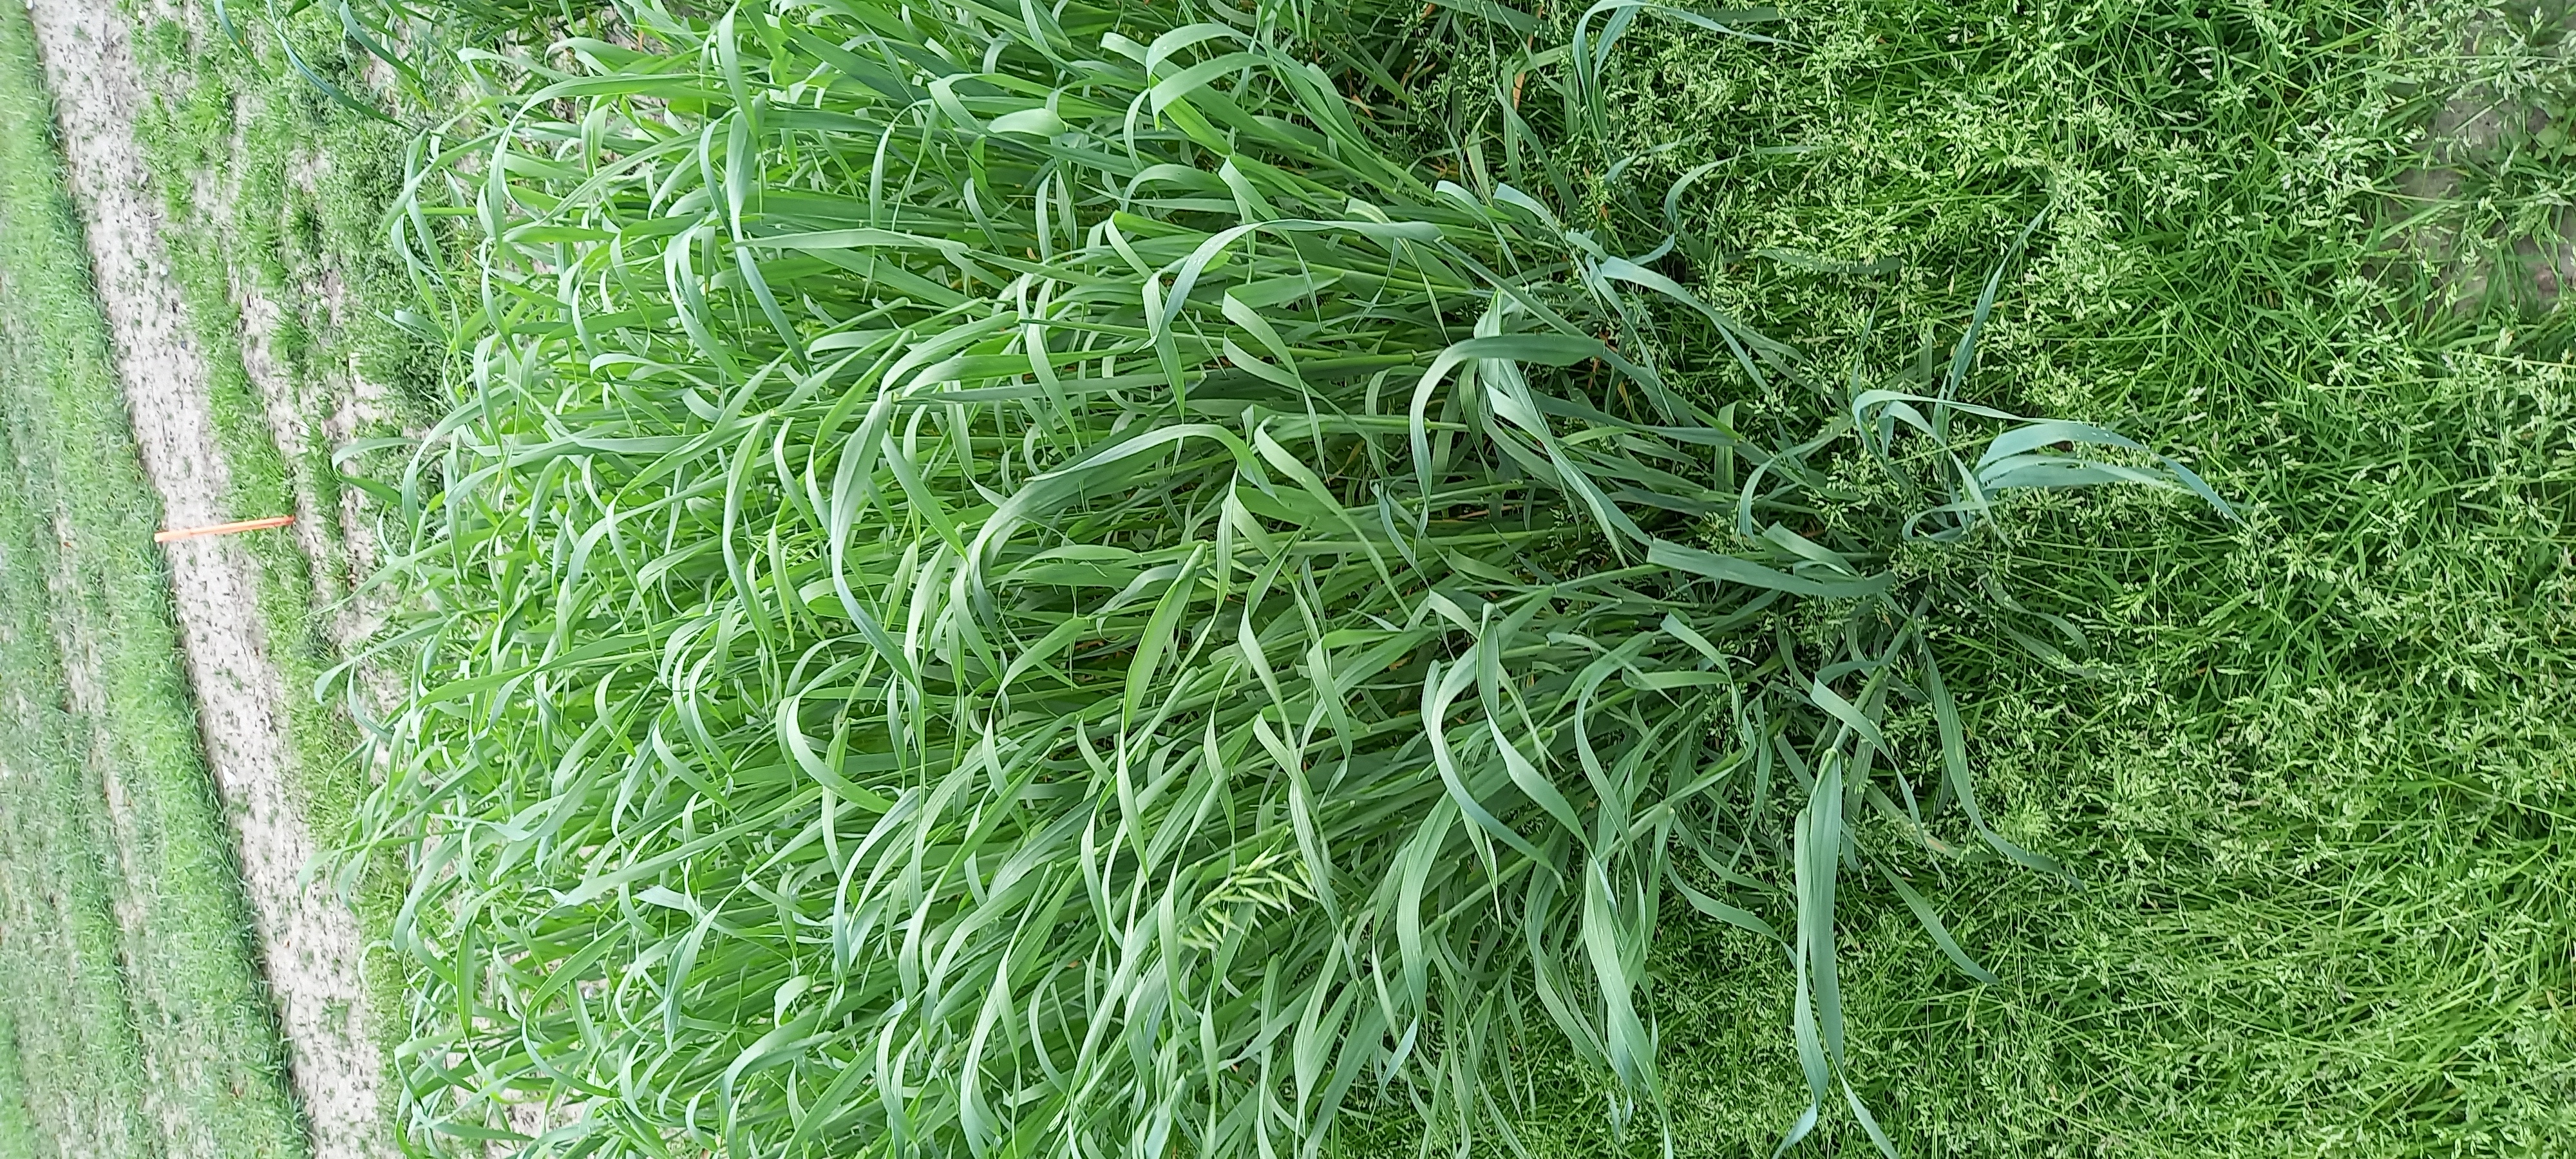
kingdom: Plantae
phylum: Tracheophyta
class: Liliopsida
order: Poales
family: Poaceae
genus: Avena
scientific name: Avena sativa
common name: Oat
